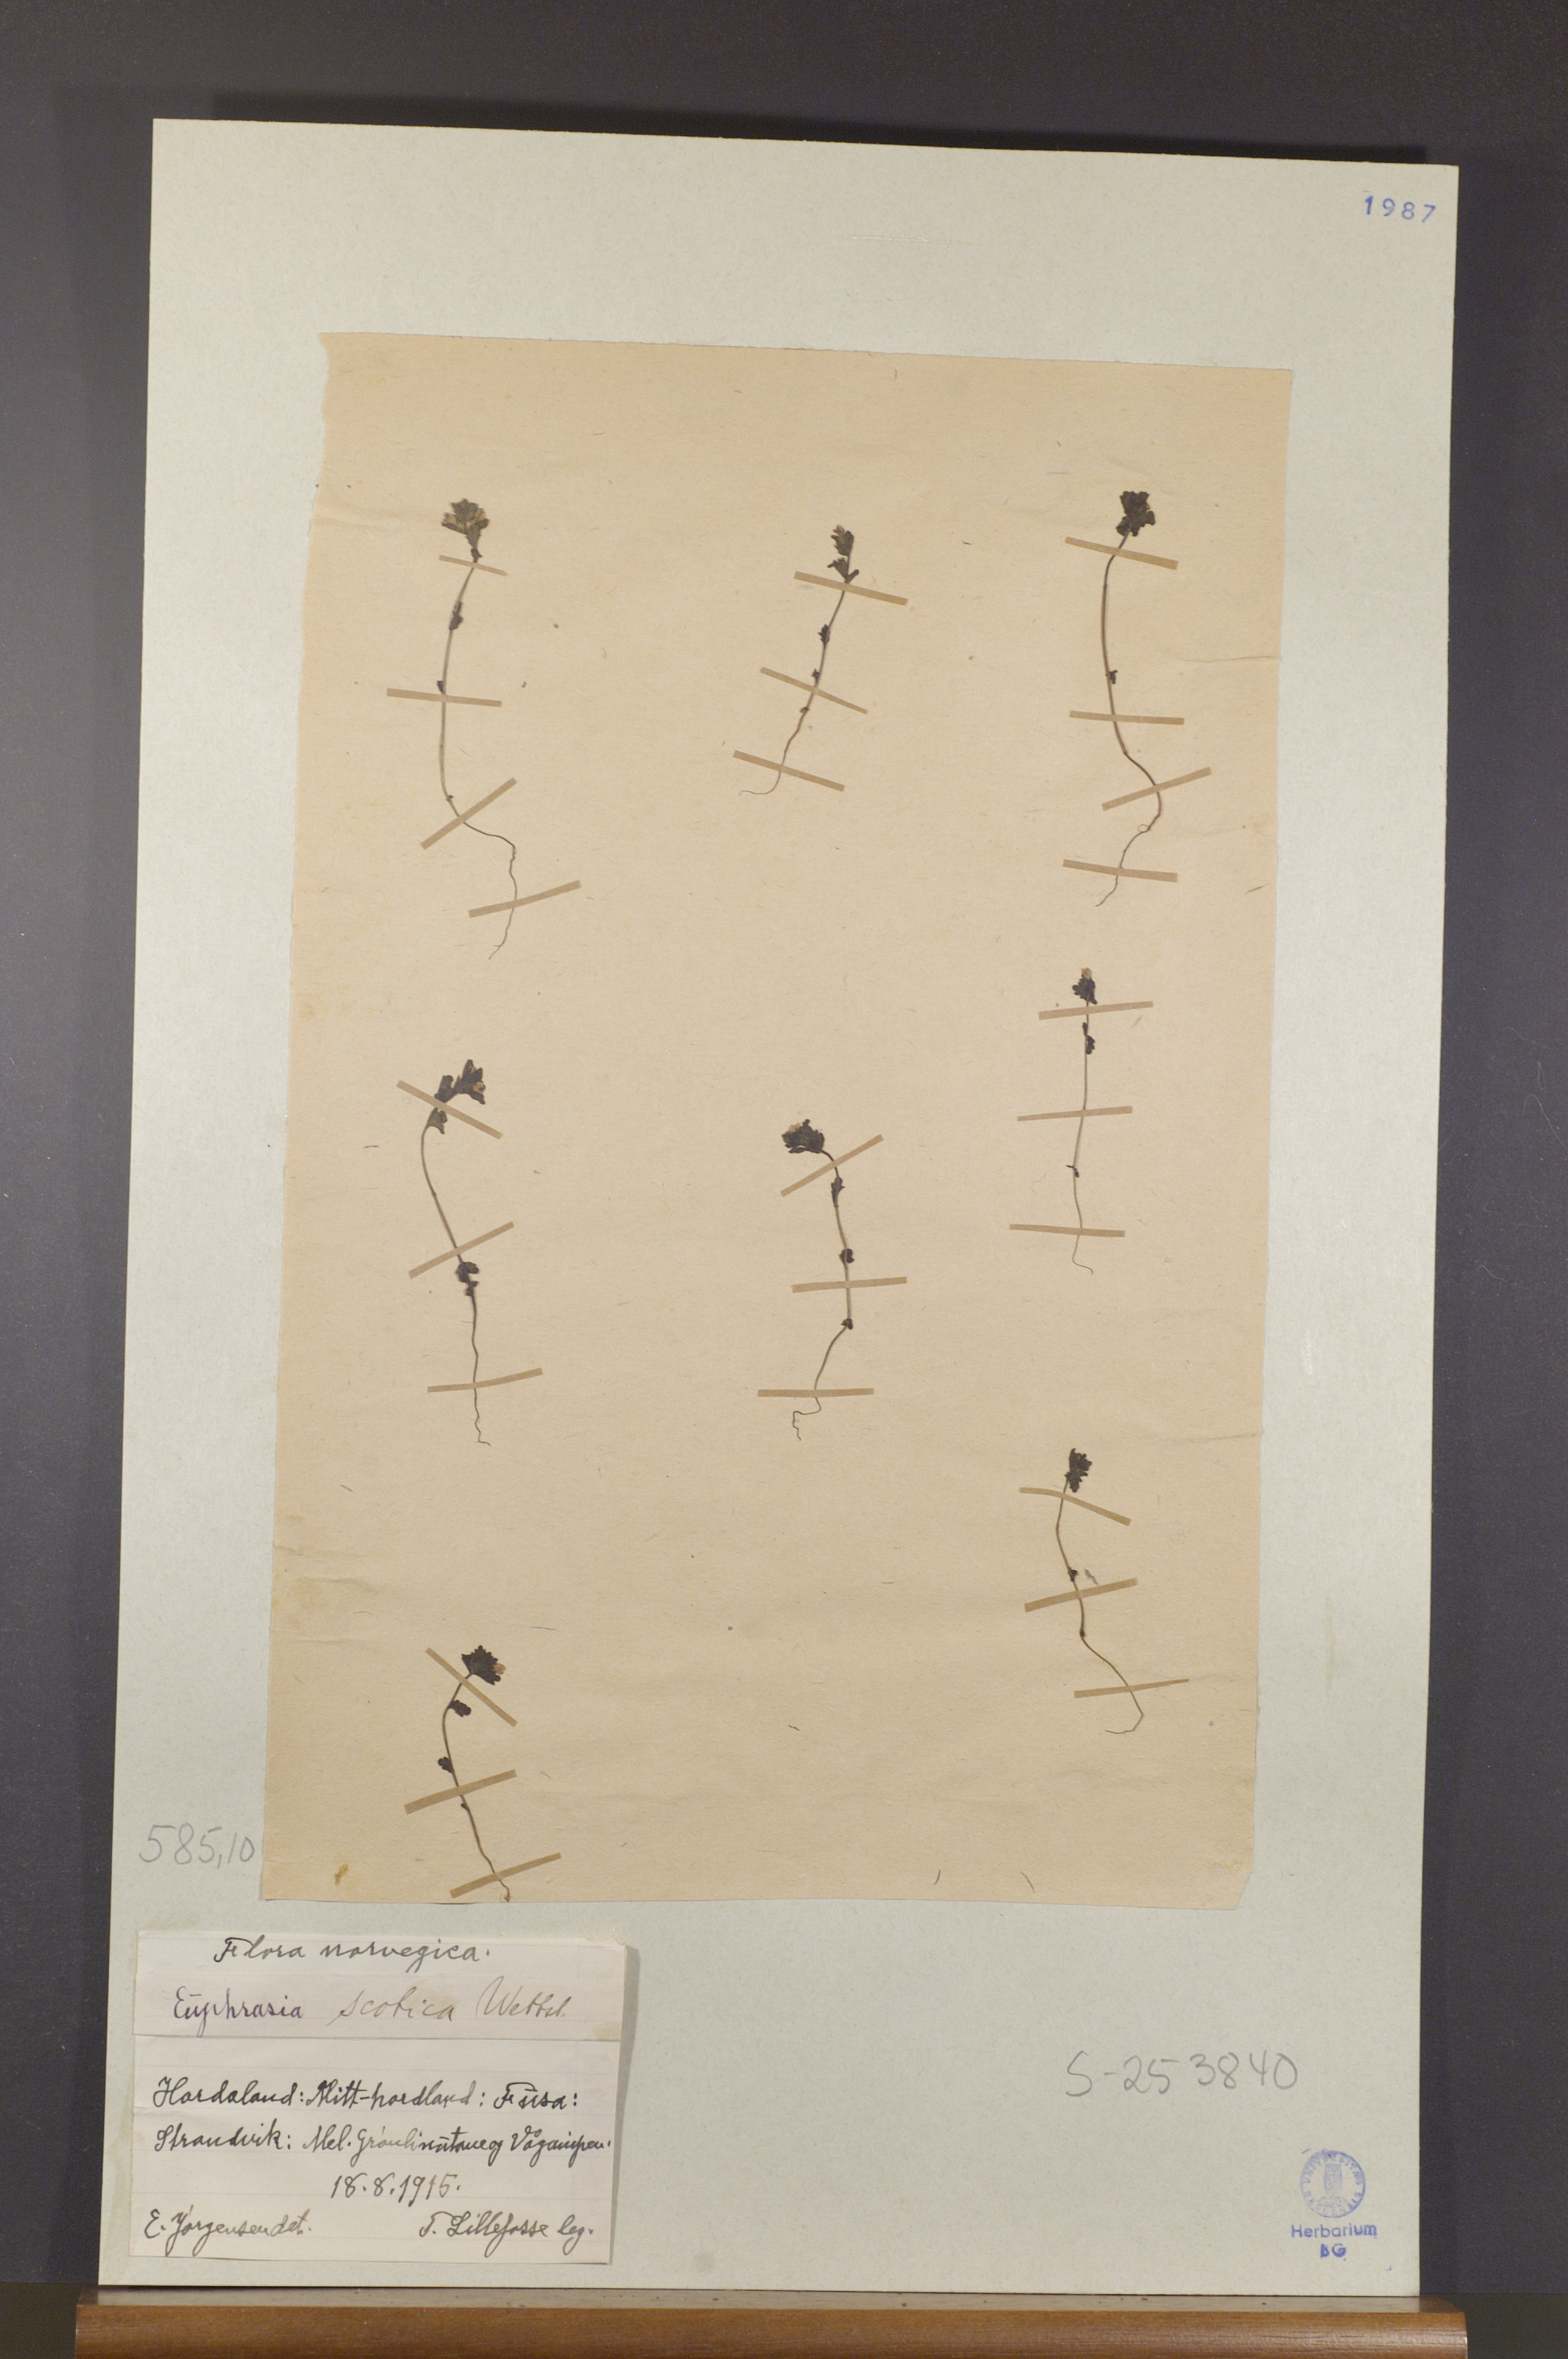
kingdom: Plantae
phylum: Tracheophyta
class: Magnoliopsida
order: Lamiales
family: Orobanchaceae
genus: Euphrasia
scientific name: Euphrasia scottica
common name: Slender scottish eyebright
